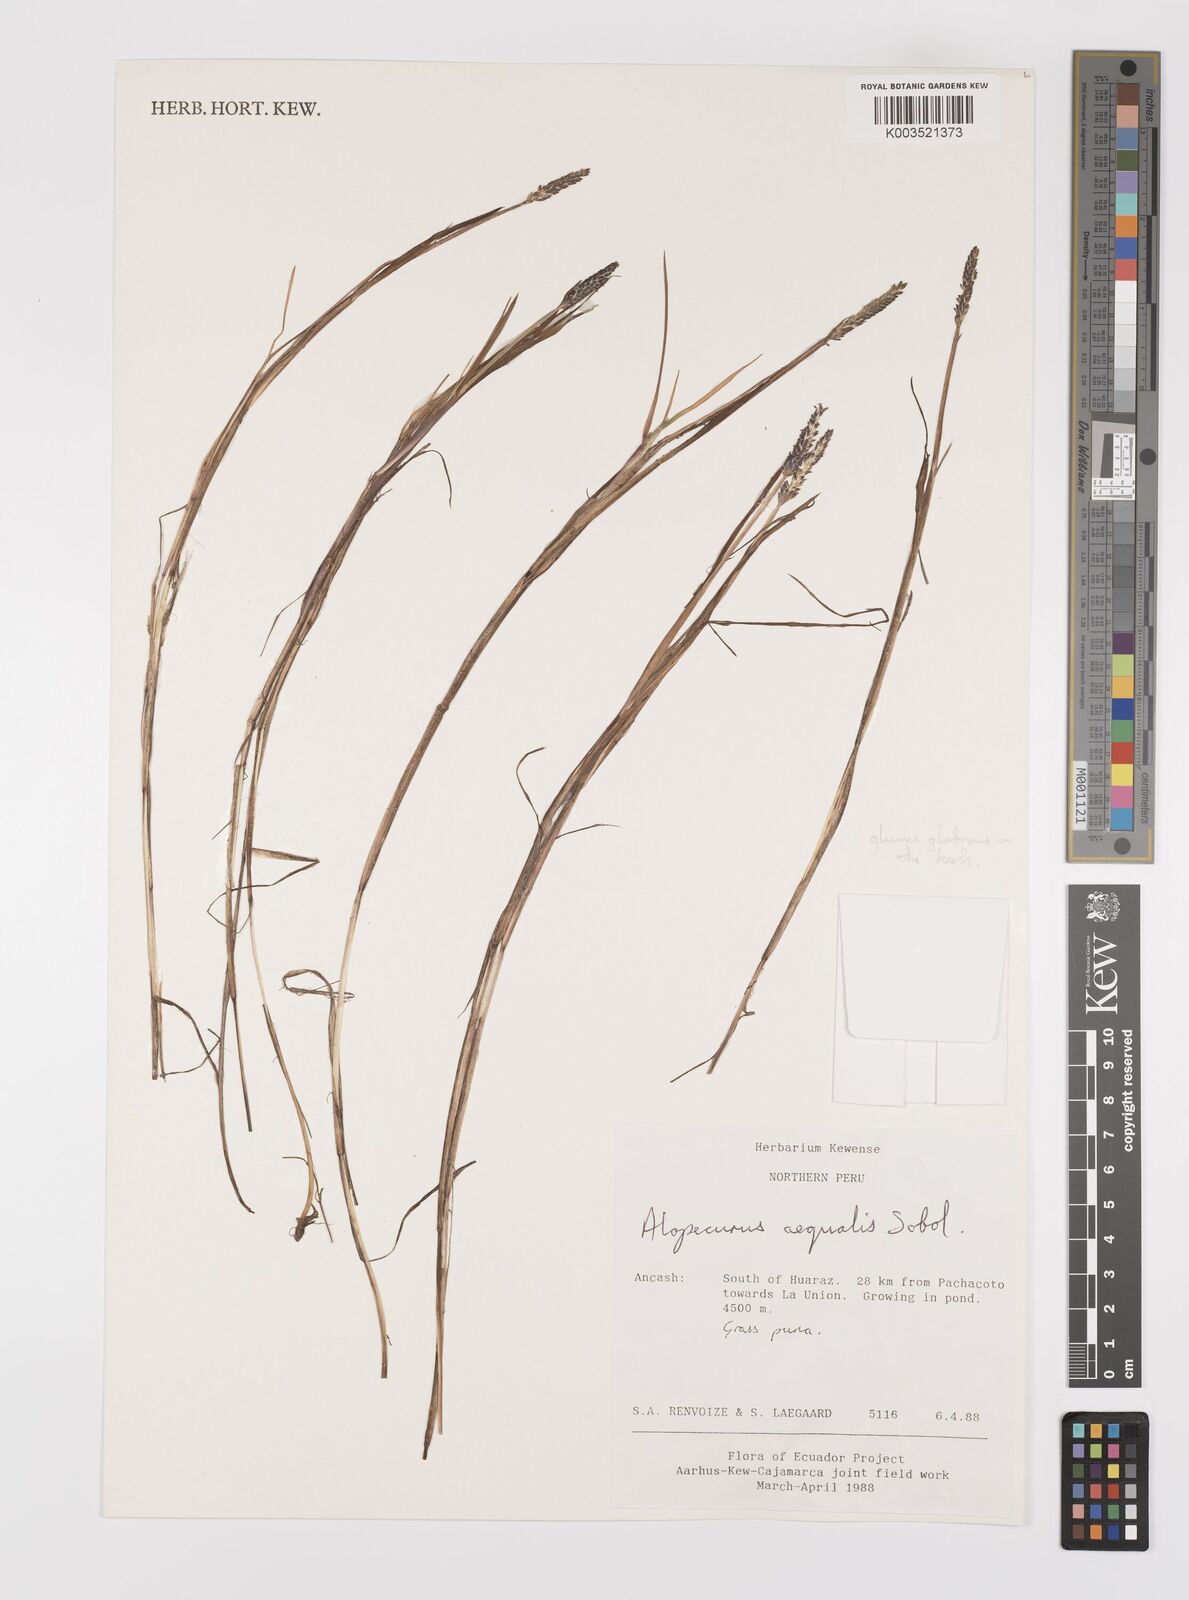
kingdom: Plantae
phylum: Tracheophyta
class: Liliopsida
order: Poales
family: Poaceae
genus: Alopecurus
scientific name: Alopecurus hitchcockii
